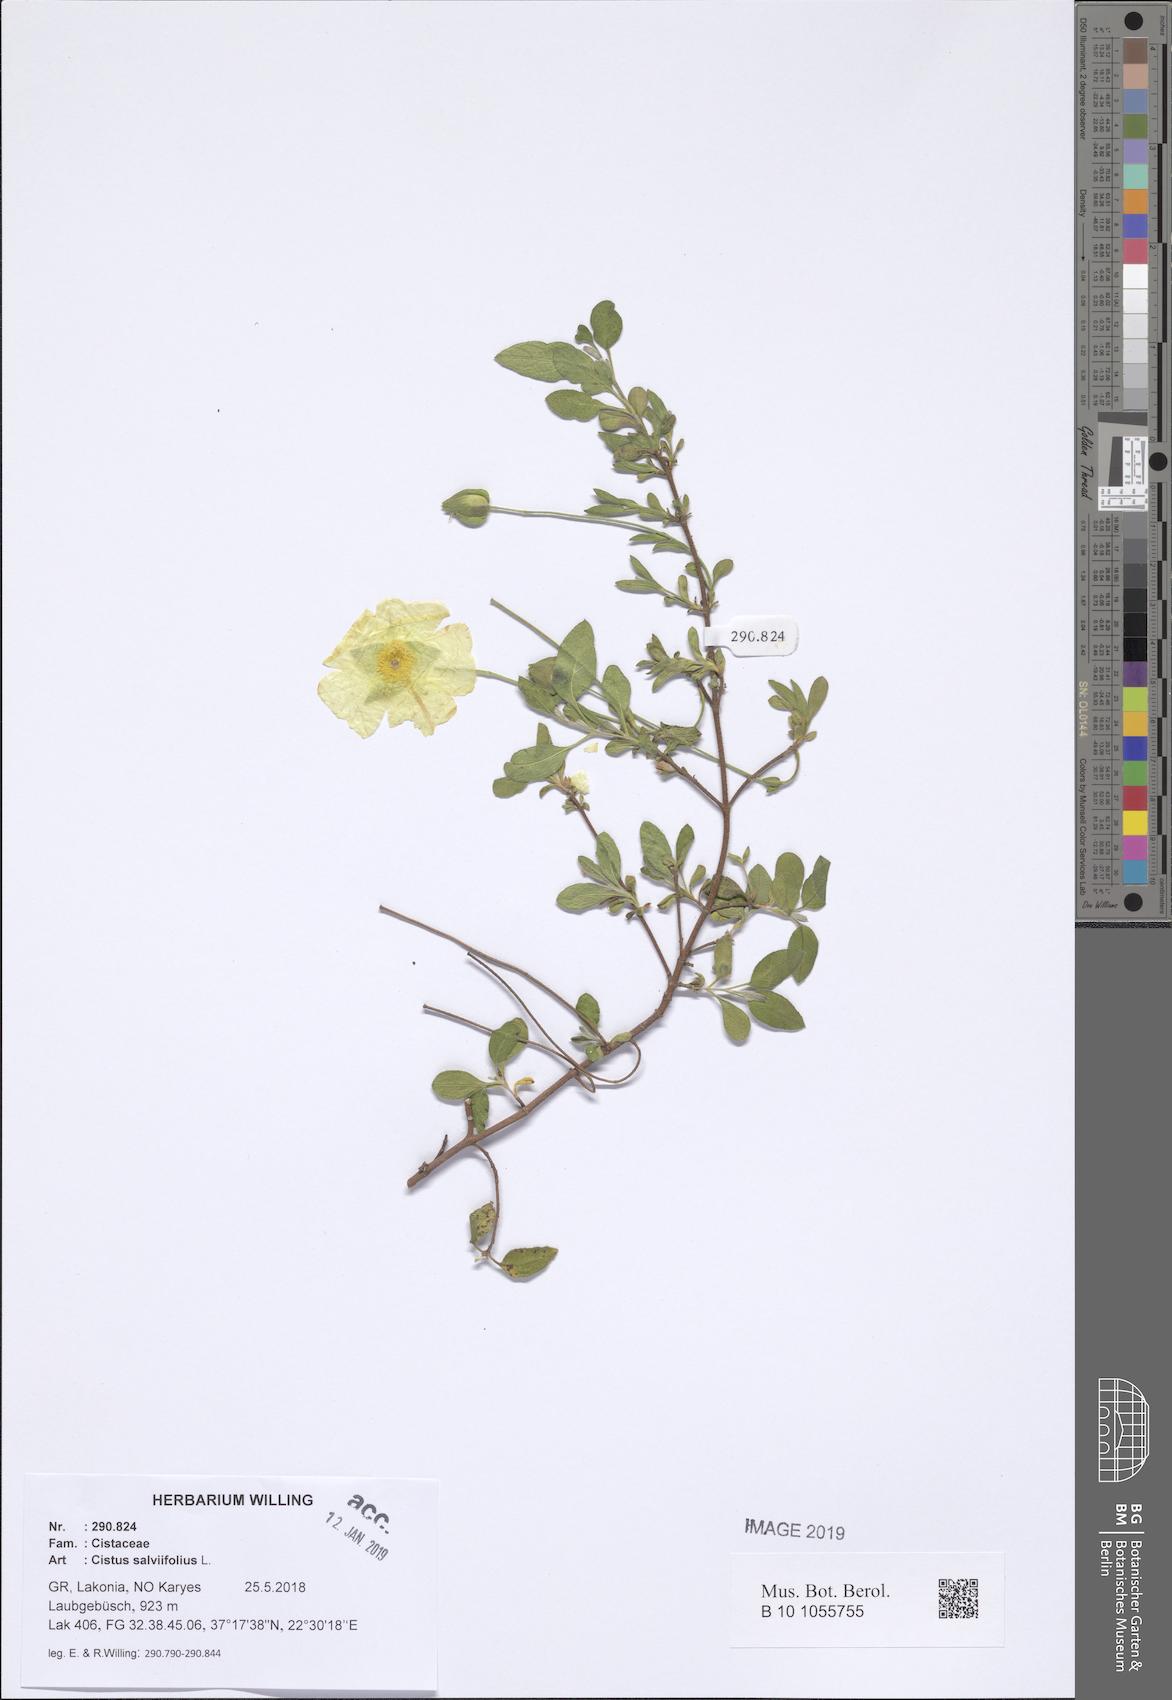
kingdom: Plantae
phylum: Tracheophyta
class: Magnoliopsida
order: Malvales
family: Cistaceae
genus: Cistus
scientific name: Cistus salviifolius
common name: Salvia cistus
